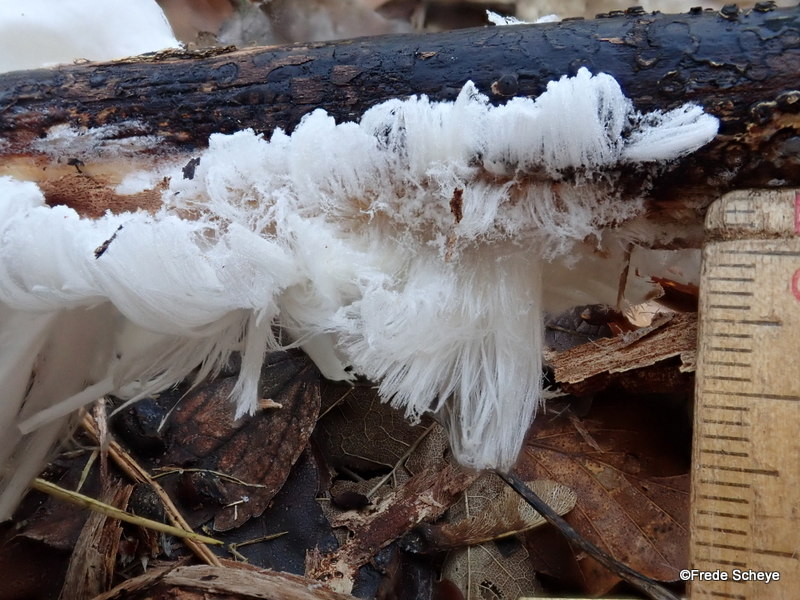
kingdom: Fungi
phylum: Basidiomycota
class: Tremellomycetes
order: Tremellales
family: Exidiaceae
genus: Exidiopsis
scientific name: Exidiopsis effusa
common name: smuk bævrehinde
